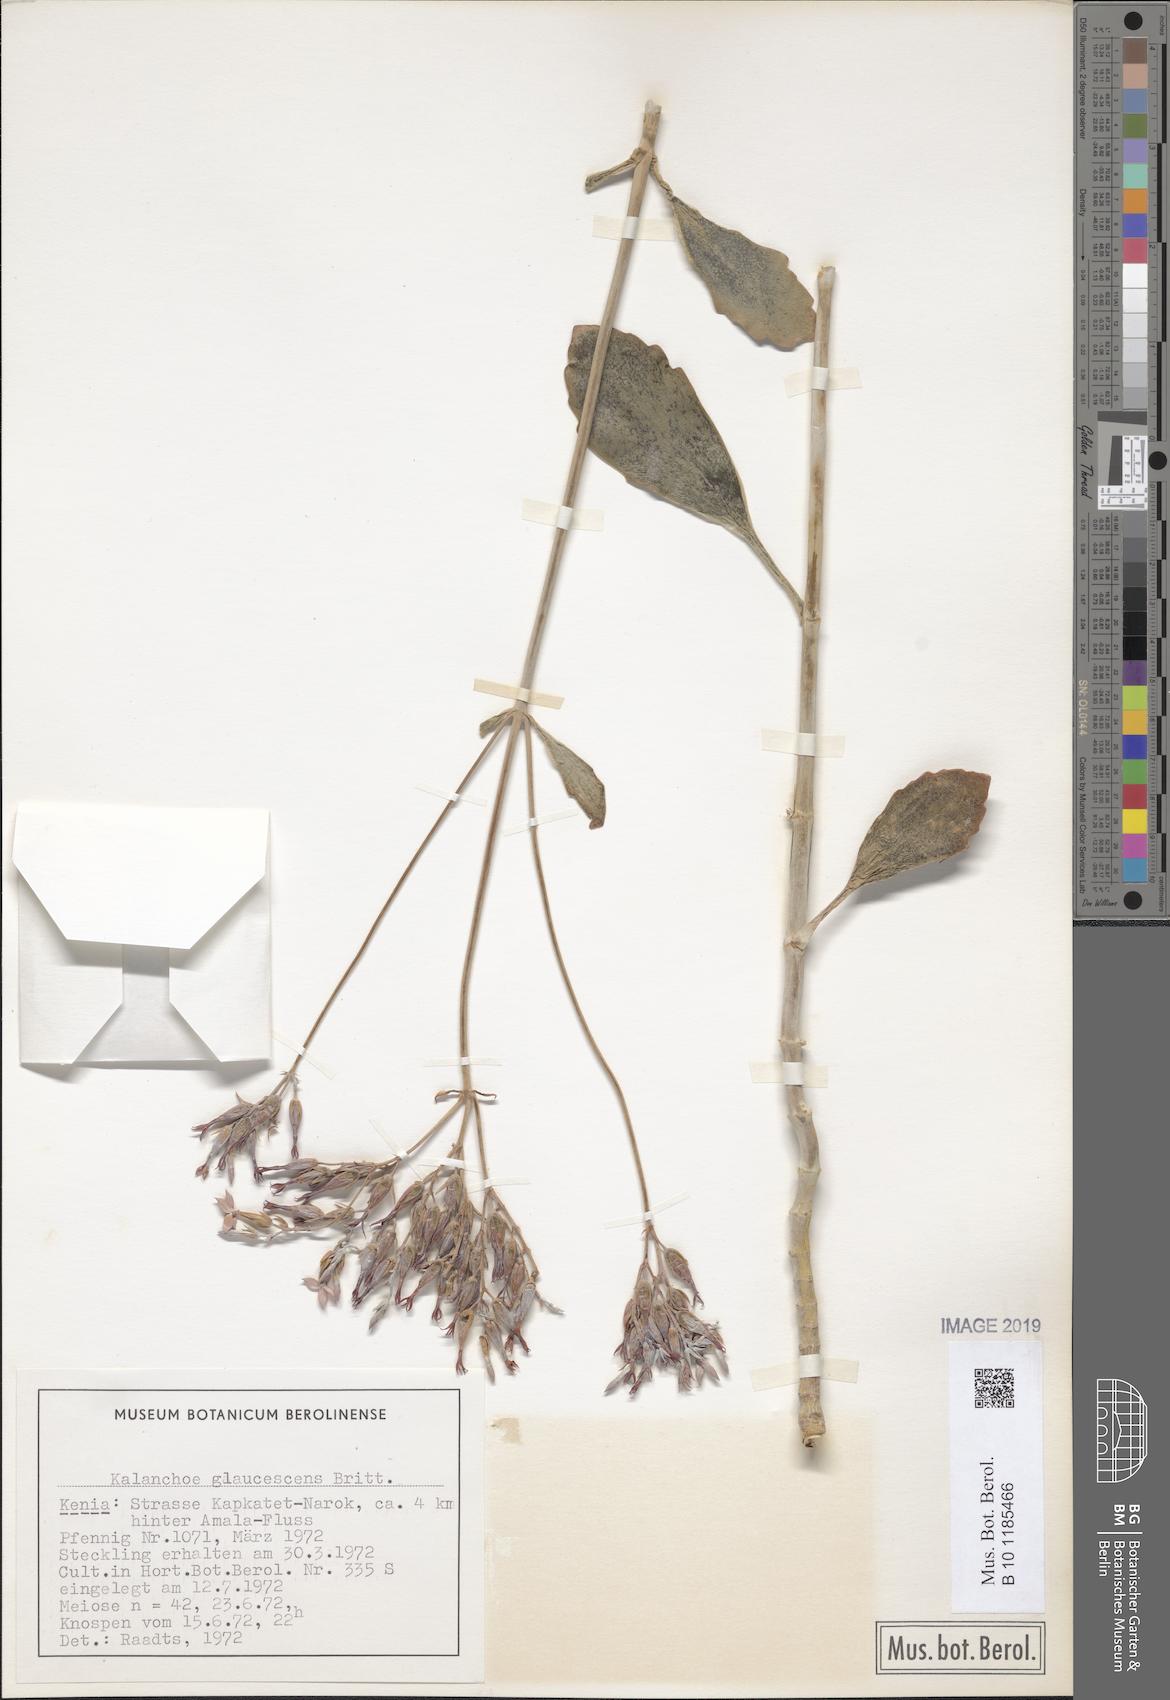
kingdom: Plantae
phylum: Tracheophyta
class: Magnoliopsida
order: Saxifragales
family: Crassulaceae
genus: Kalanchoe
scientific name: Kalanchoe glaucescens
